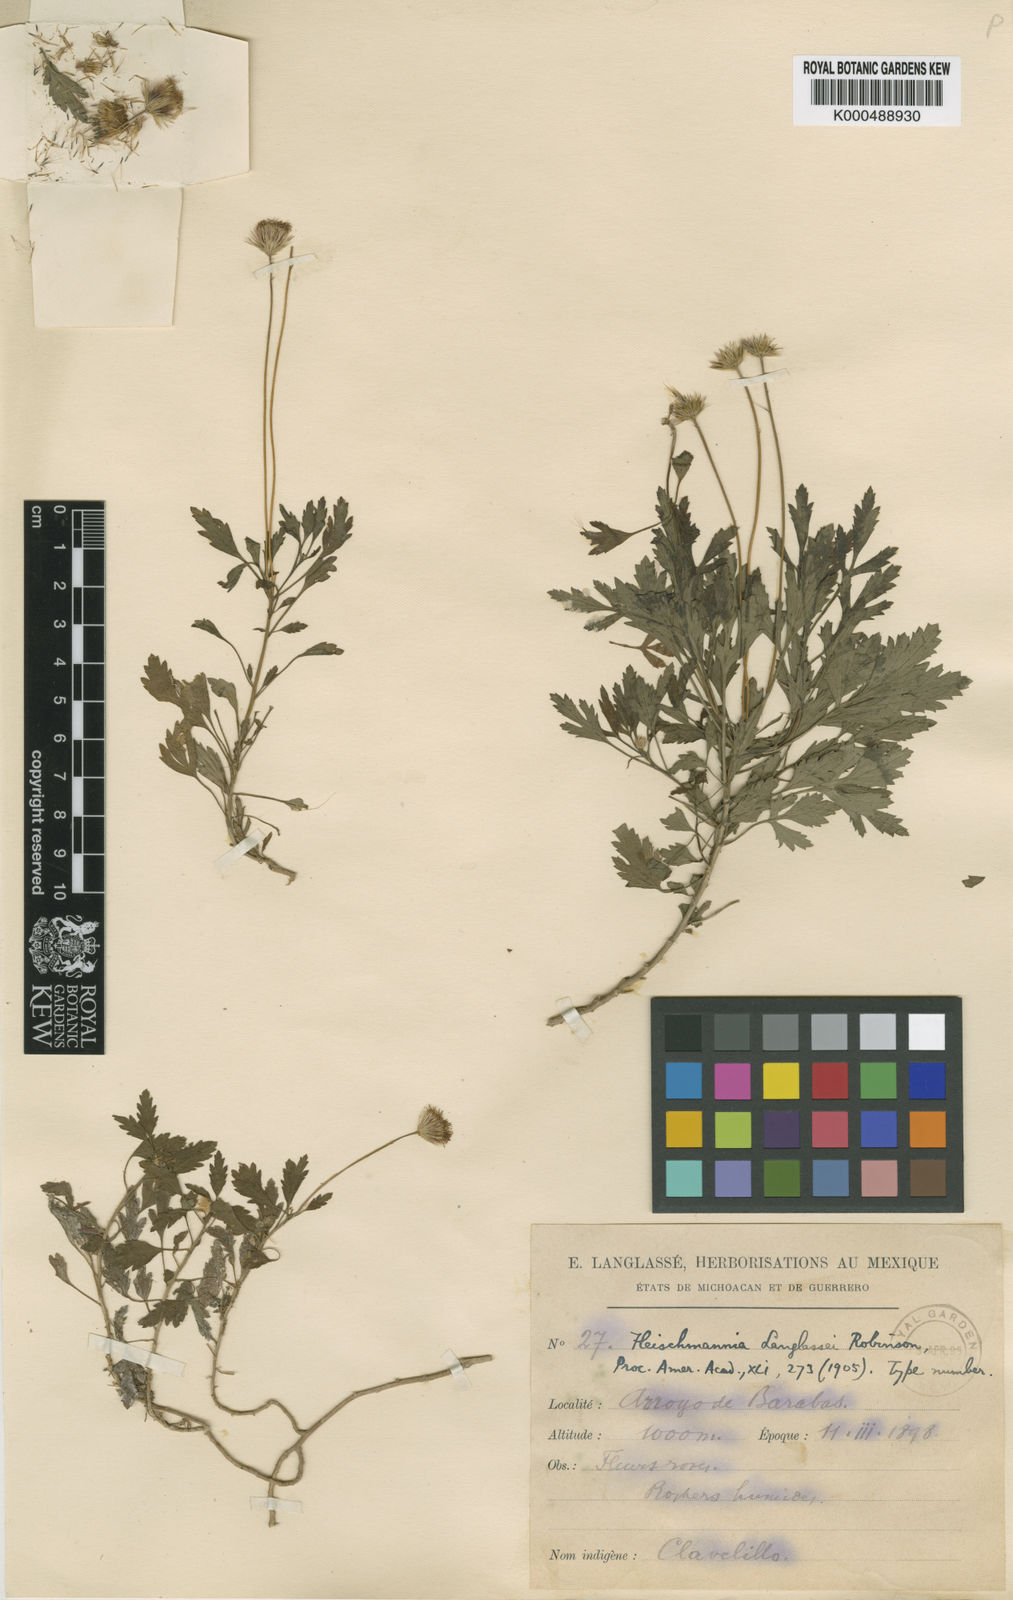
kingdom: Plantae
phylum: Tracheophyta
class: Magnoliopsida
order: Asterales
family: Asteraceae
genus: Hofmeisteria
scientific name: Hofmeisteria
